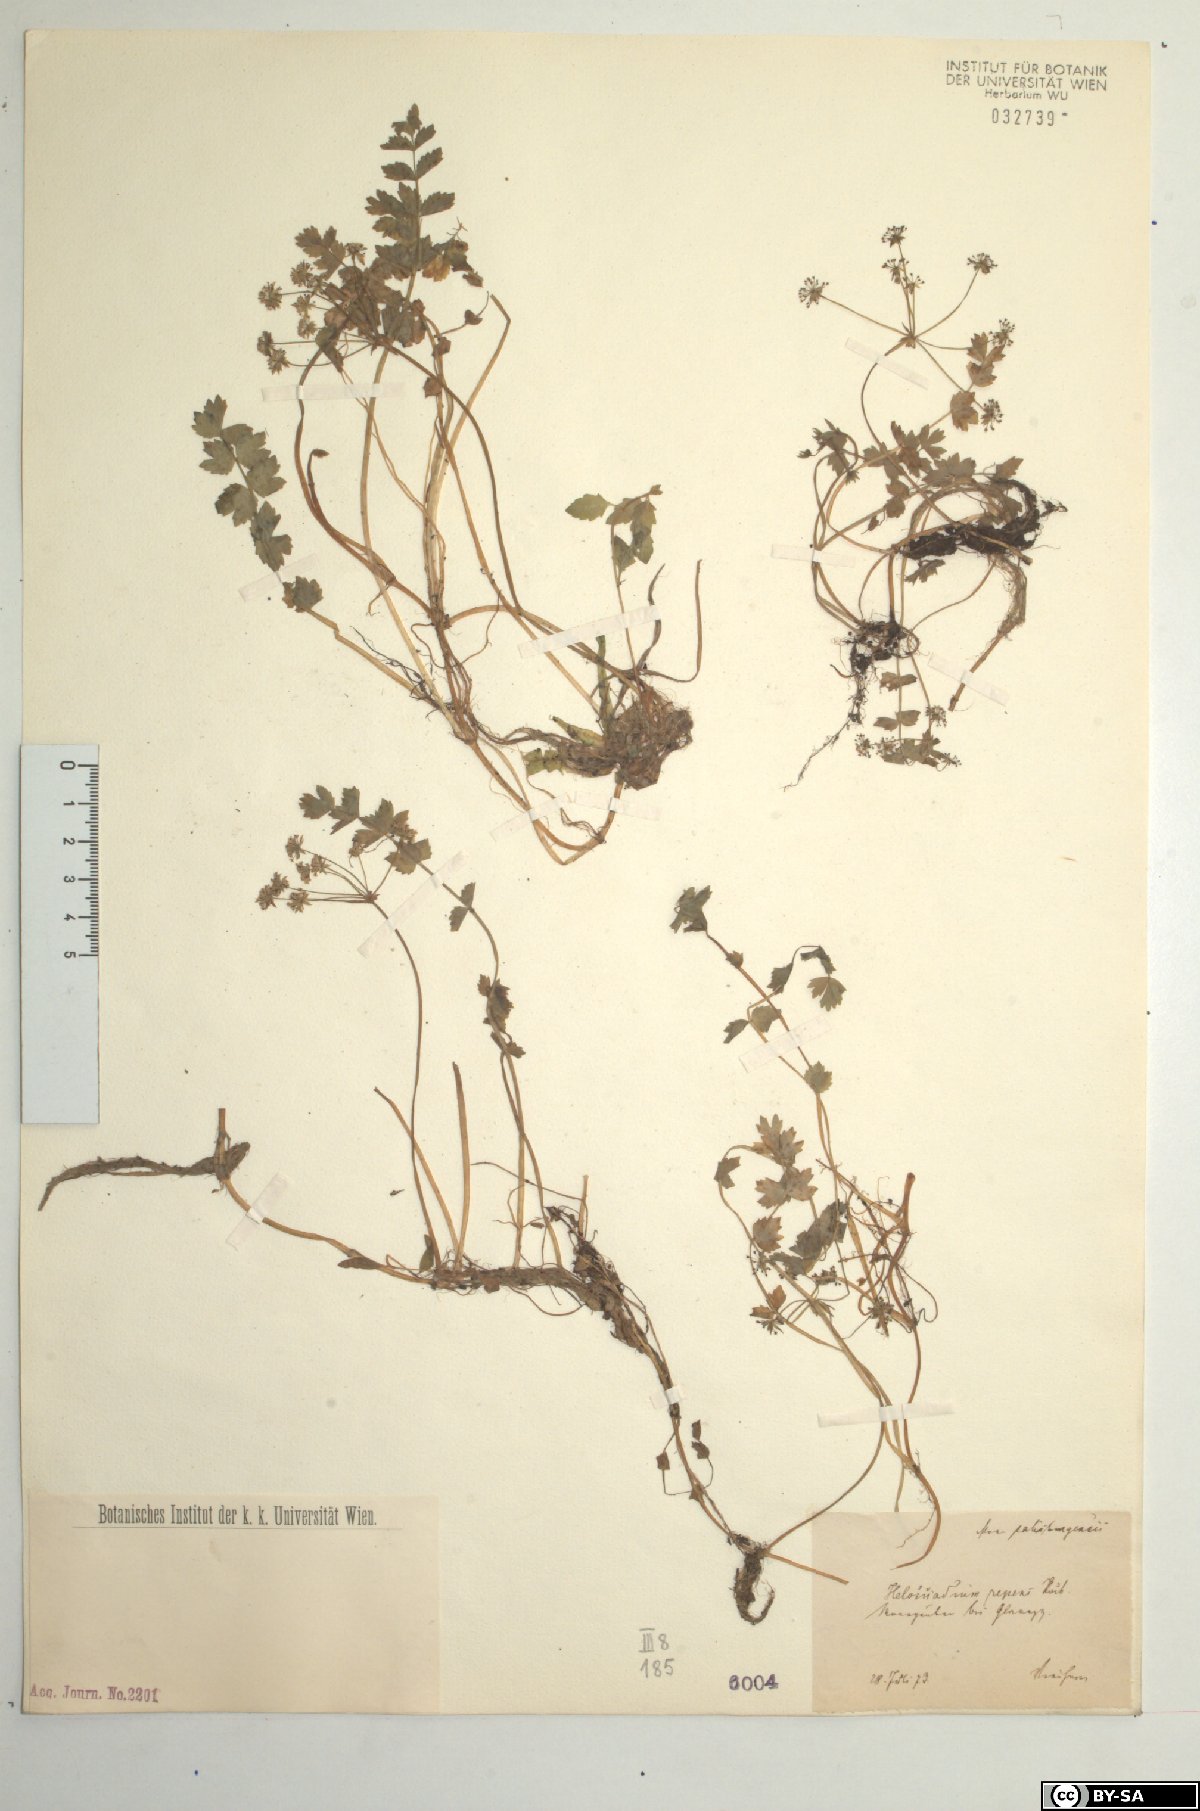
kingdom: Plantae
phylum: Tracheophyta
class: Magnoliopsida
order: Apiales
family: Apiaceae
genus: Helosciadium
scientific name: Helosciadium repens
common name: Creeping marshwort
